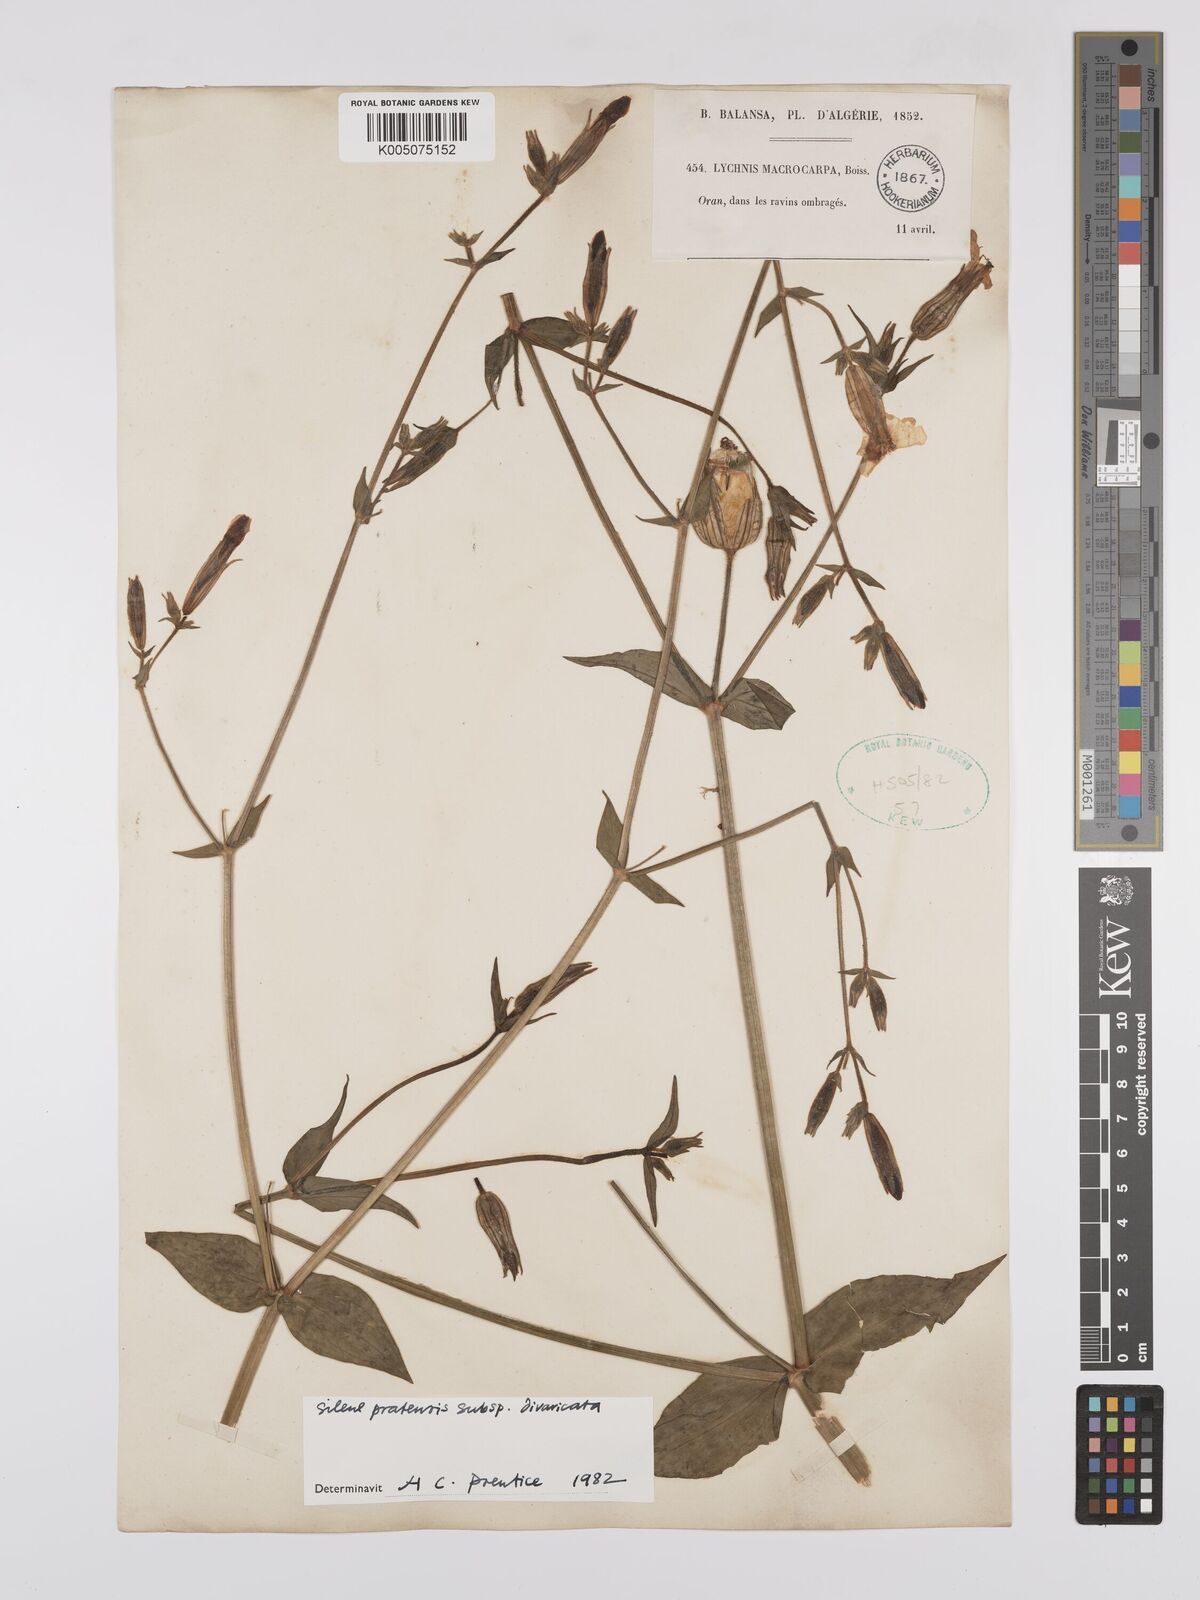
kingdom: Plantae
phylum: Tracheophyta
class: Magnoliopsida
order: Caryophyllales
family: Caryophyllaceae
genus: Silene
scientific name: Silene latifolia
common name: White campion
